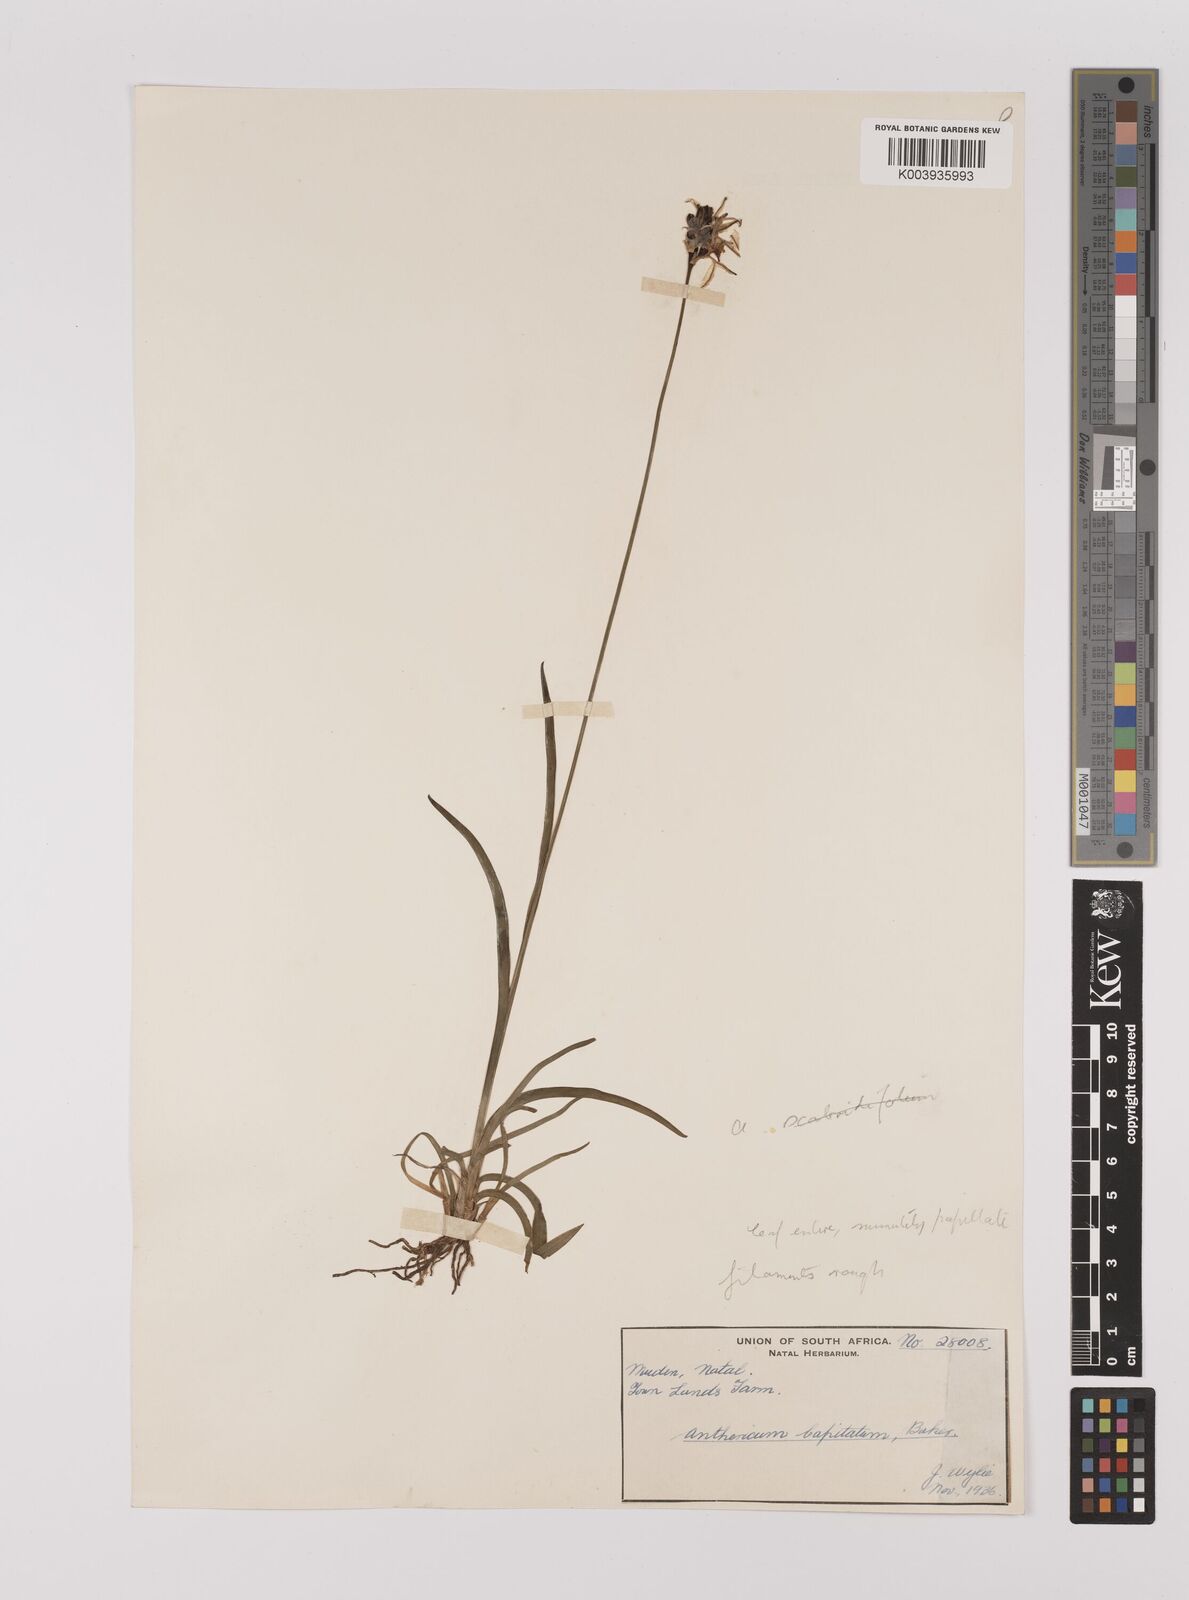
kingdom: Plantae
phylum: Tracheophyta
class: Liliopsida
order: Asparagales
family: Asparagaceae
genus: Chlorophytum
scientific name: Chlorophytum cooperi
